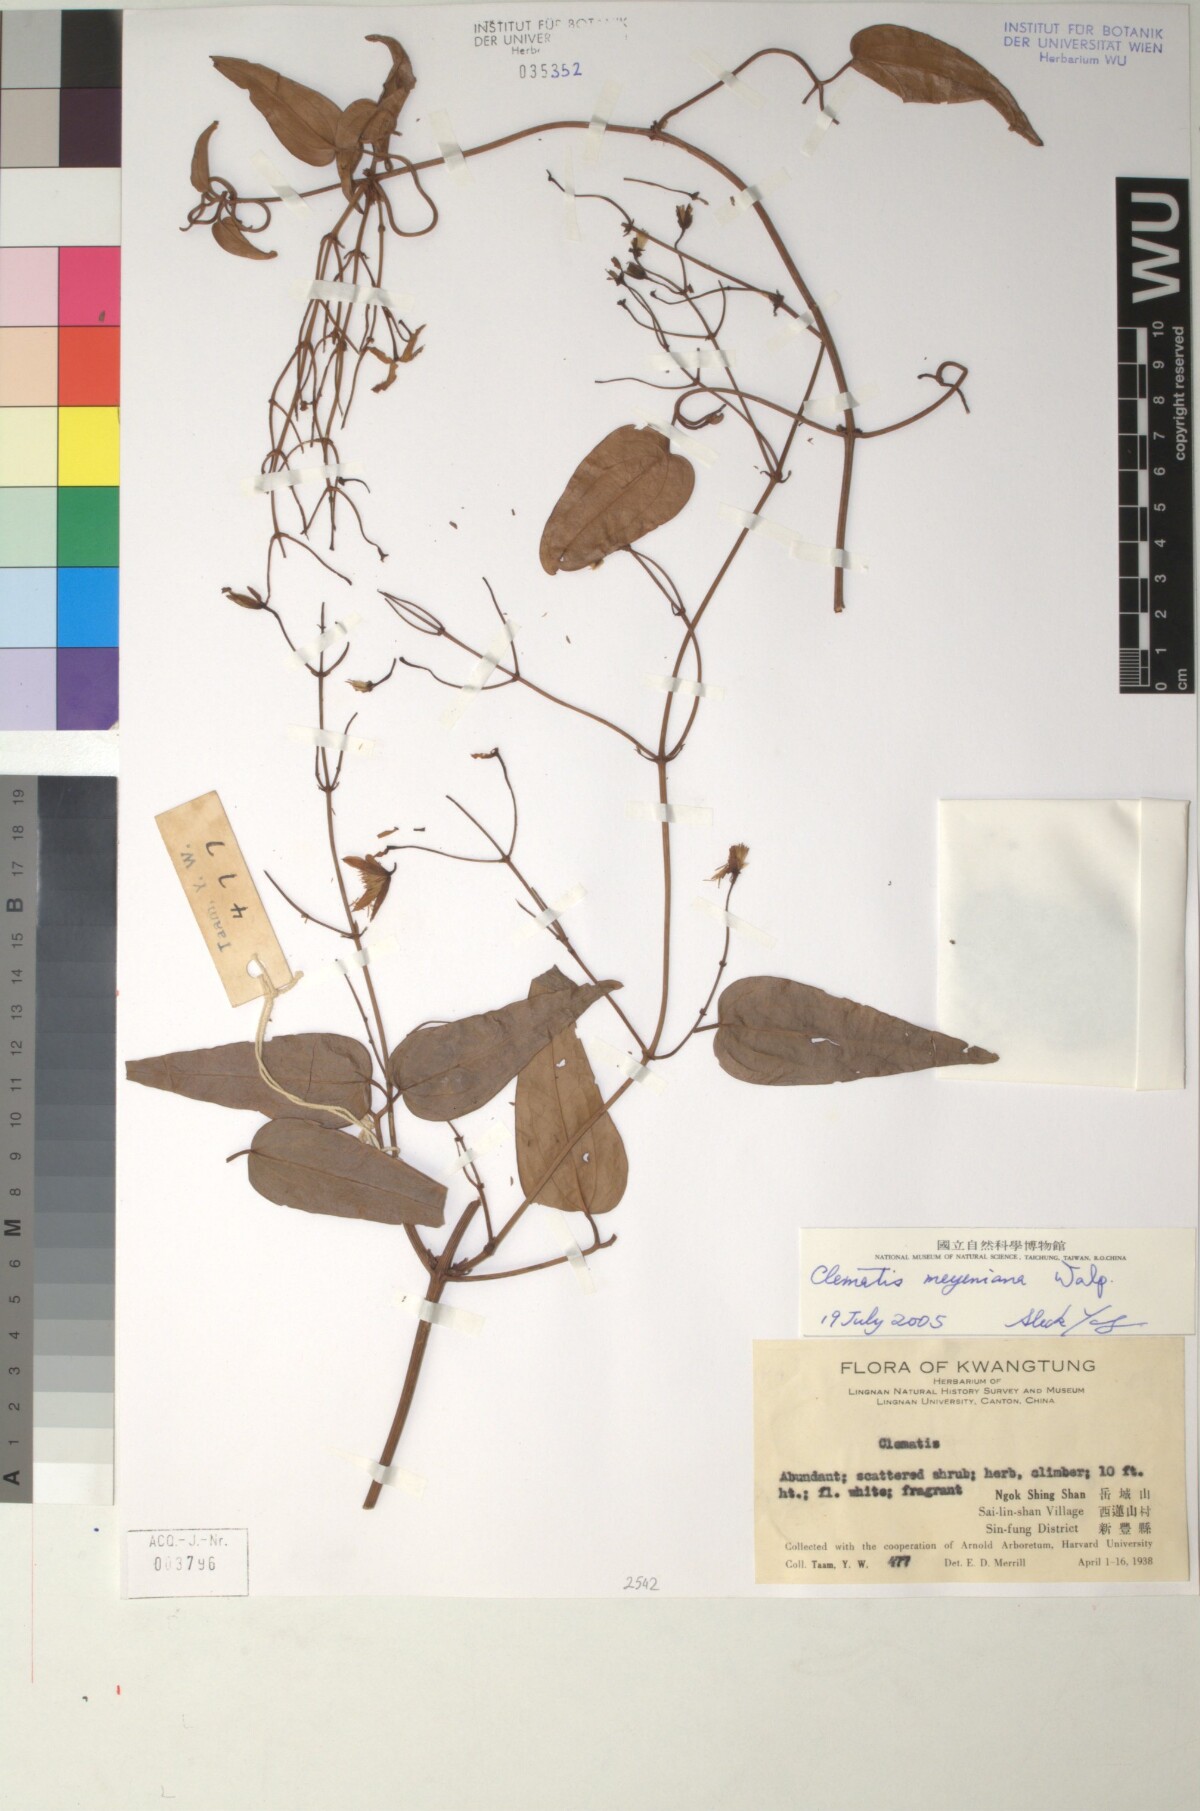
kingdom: Plantae
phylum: Tracheophyta
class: Magnoliopsida
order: Ranunculales
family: Ranunculaceae
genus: Clematis
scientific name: Clematis meyeniana
